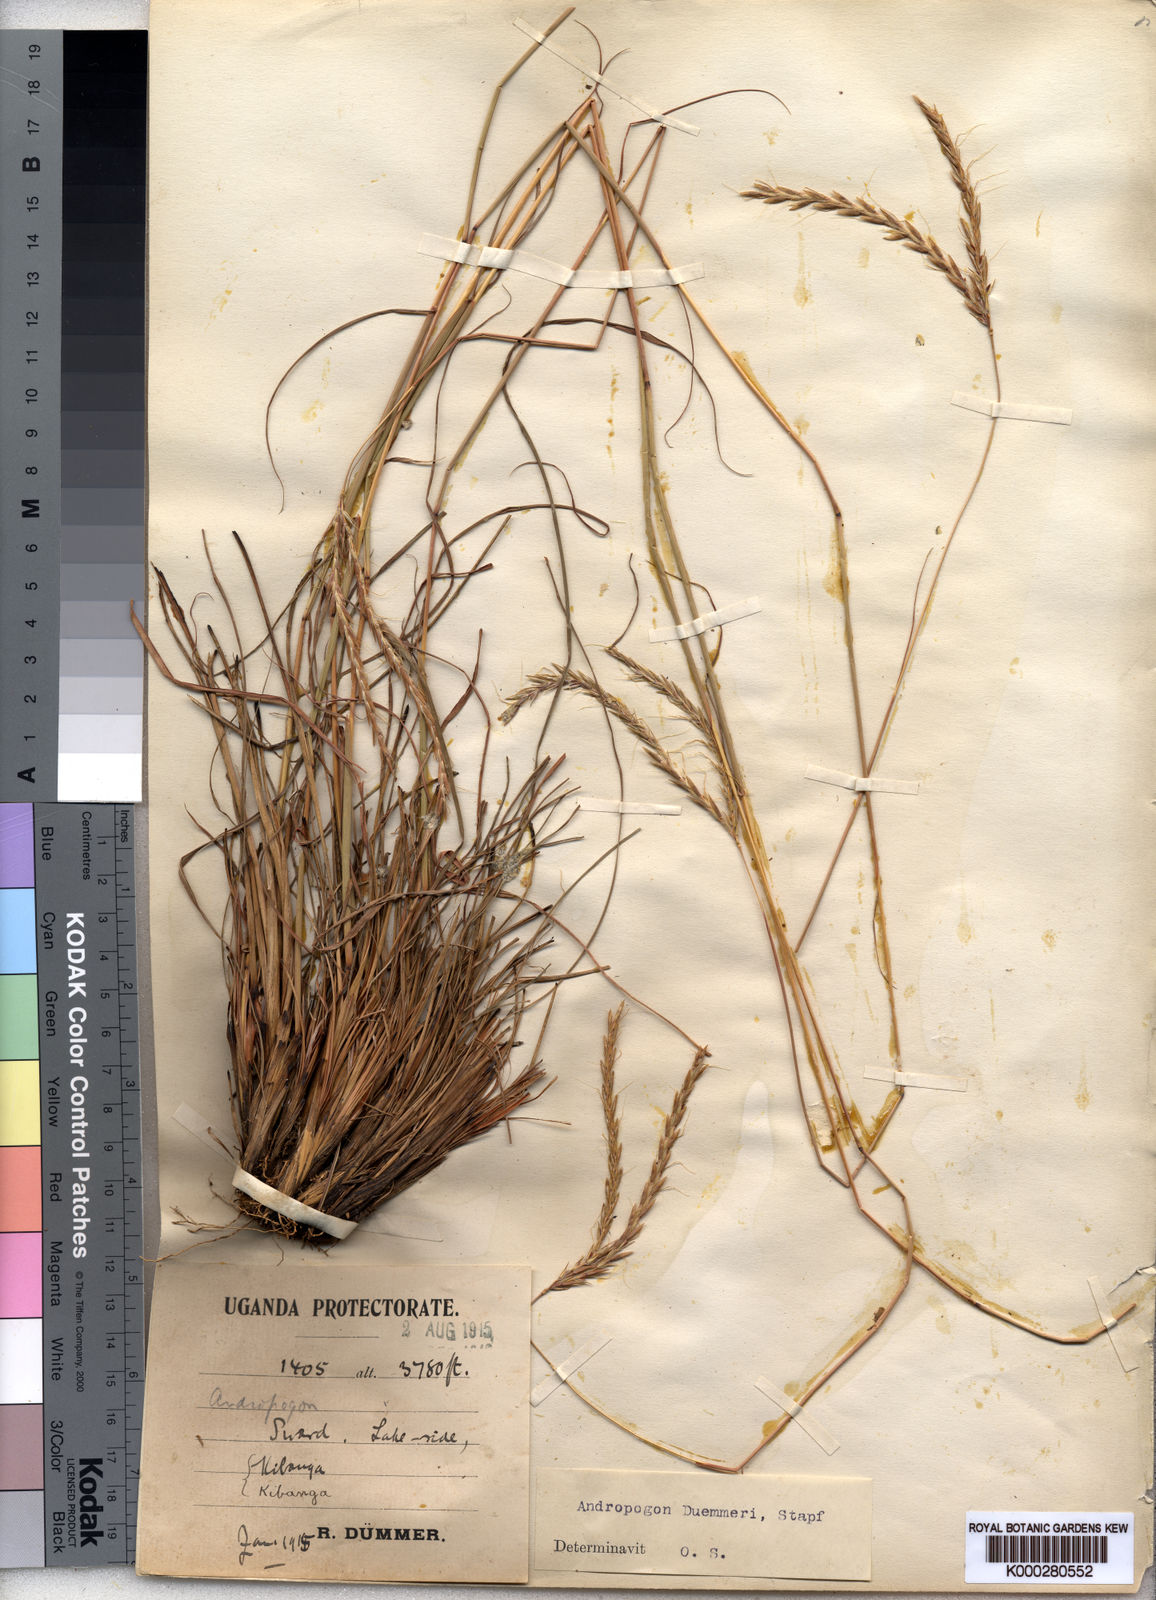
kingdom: Plantae
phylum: Tracheophyta
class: Liliopsida
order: Poales
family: Poaceae
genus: Andropogon
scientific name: Andropogon
